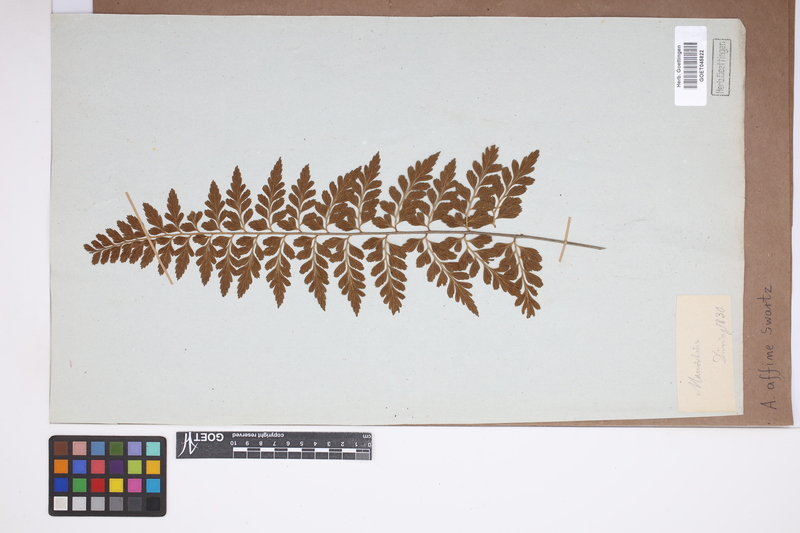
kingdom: Plantae
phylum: Tracheophyta
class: Polypodiopsida
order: Polypodiales
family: Aspleniaceae
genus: Asplenium
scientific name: Asplenium affine
